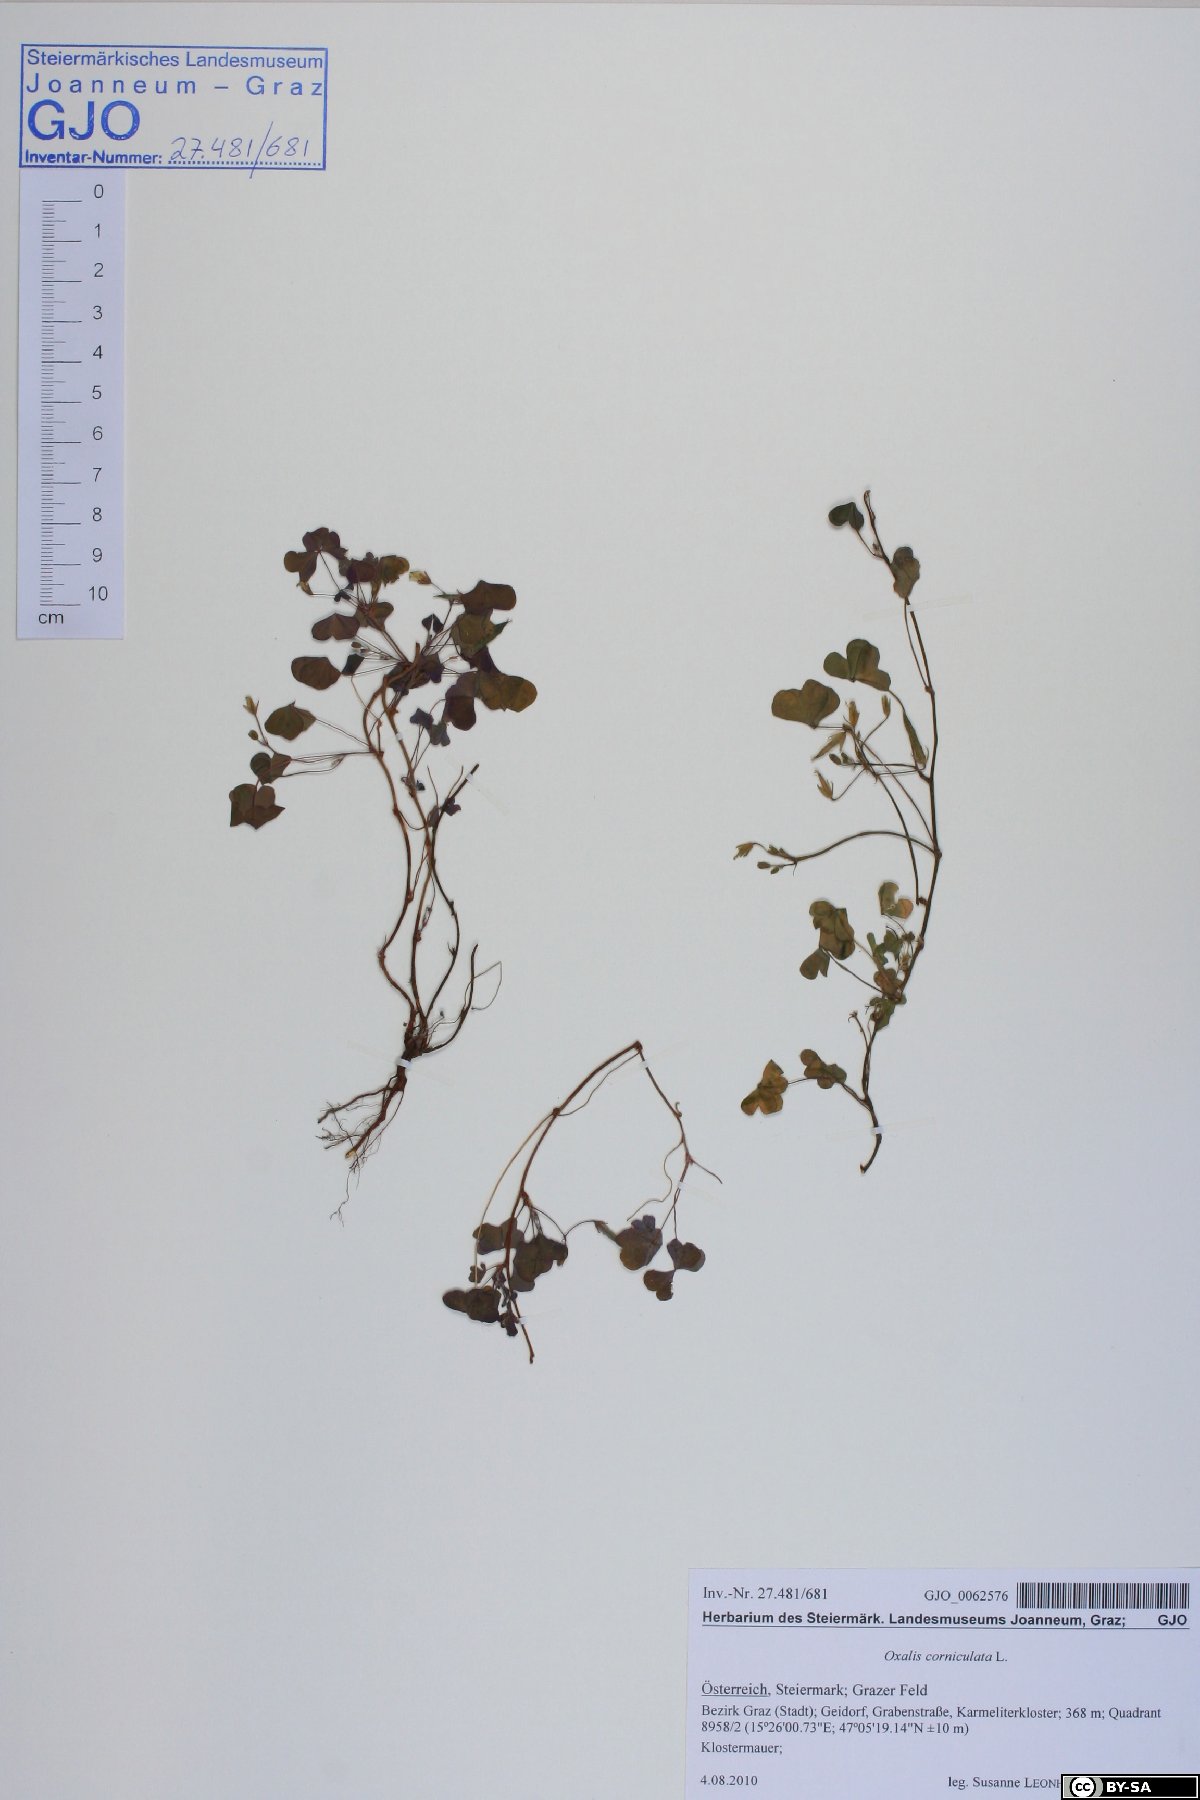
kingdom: Plantae
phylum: Tracheophyta
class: Magnoliopsida
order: Oxalidales
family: Oxalidaceae
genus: Oxalis
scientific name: Oxalis corniculata
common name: Procumbent yellow-sorrel
